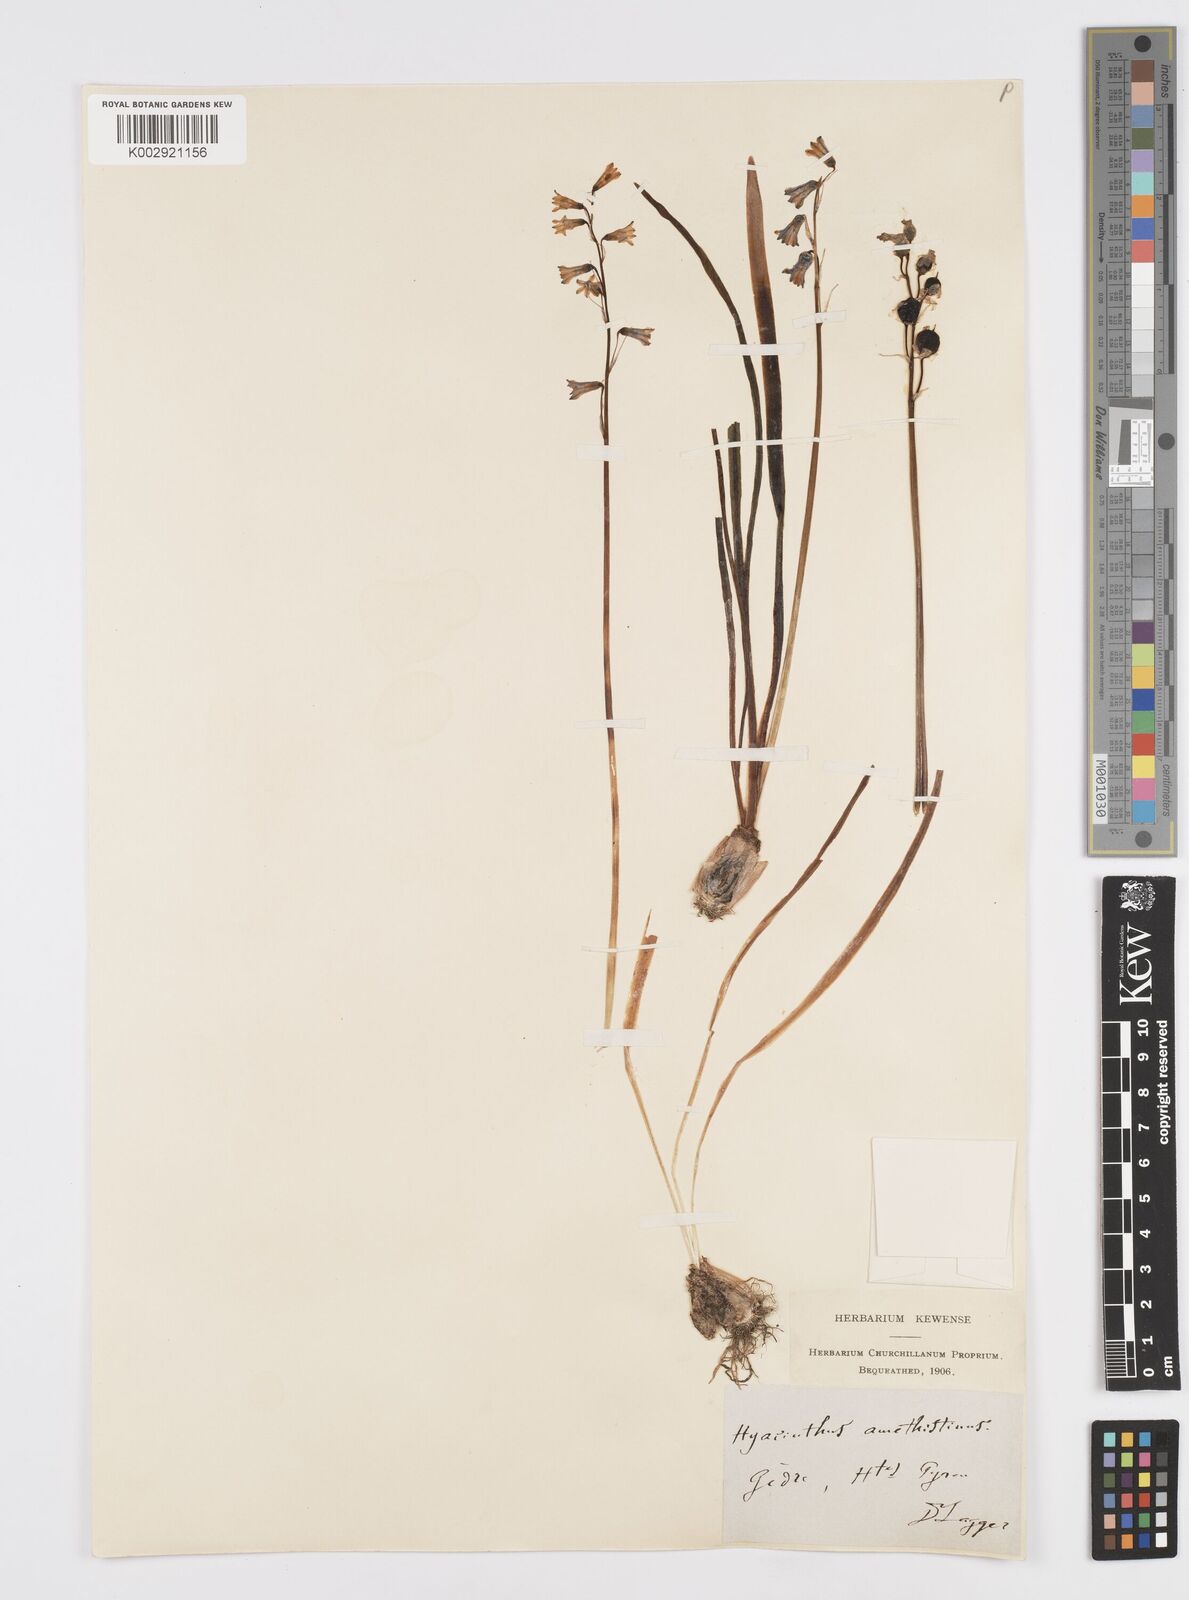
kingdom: Plantae
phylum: Tracheophyta
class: Liliopsida
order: Asparagales
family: Asparagaceae
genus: Brimeura
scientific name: Brimeura amethystina
